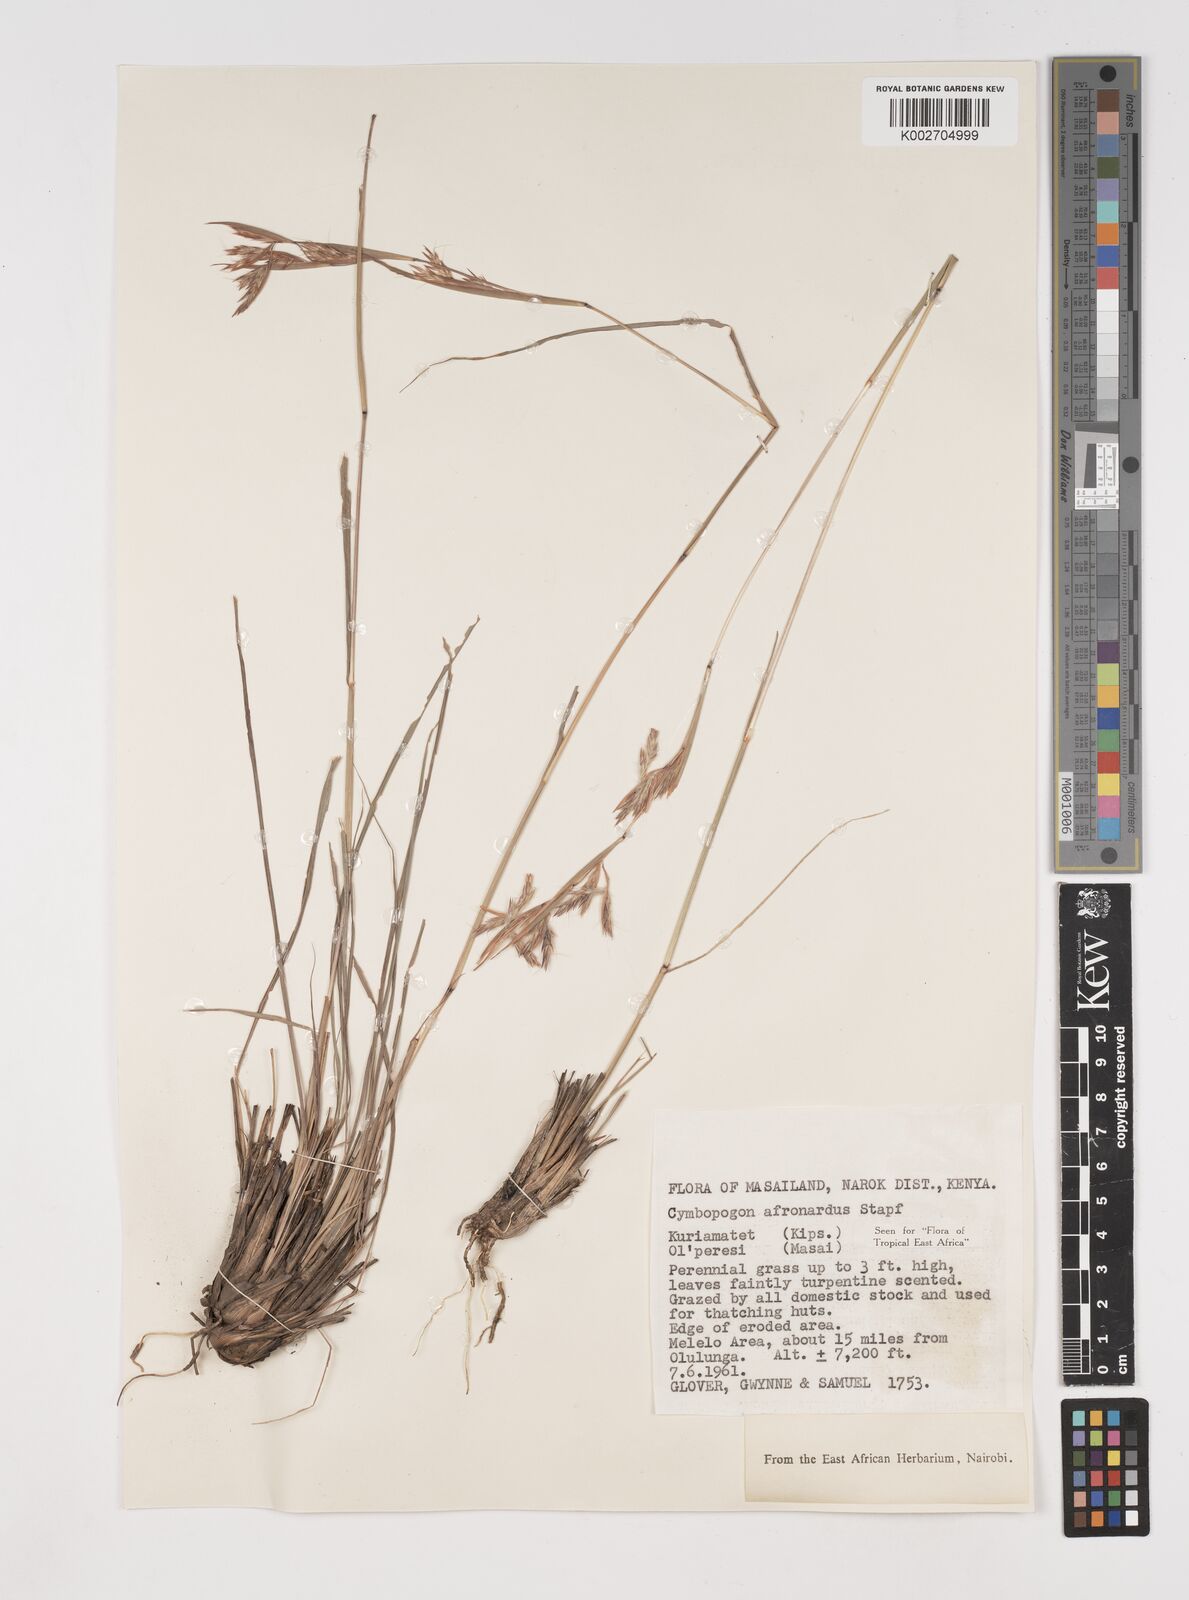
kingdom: Plantae
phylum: Tracheophyta
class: Liliopsida
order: Poales
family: Poaceae
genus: Cymbopogon
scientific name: Cymbopogon nardus
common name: Giant turpentine grass
